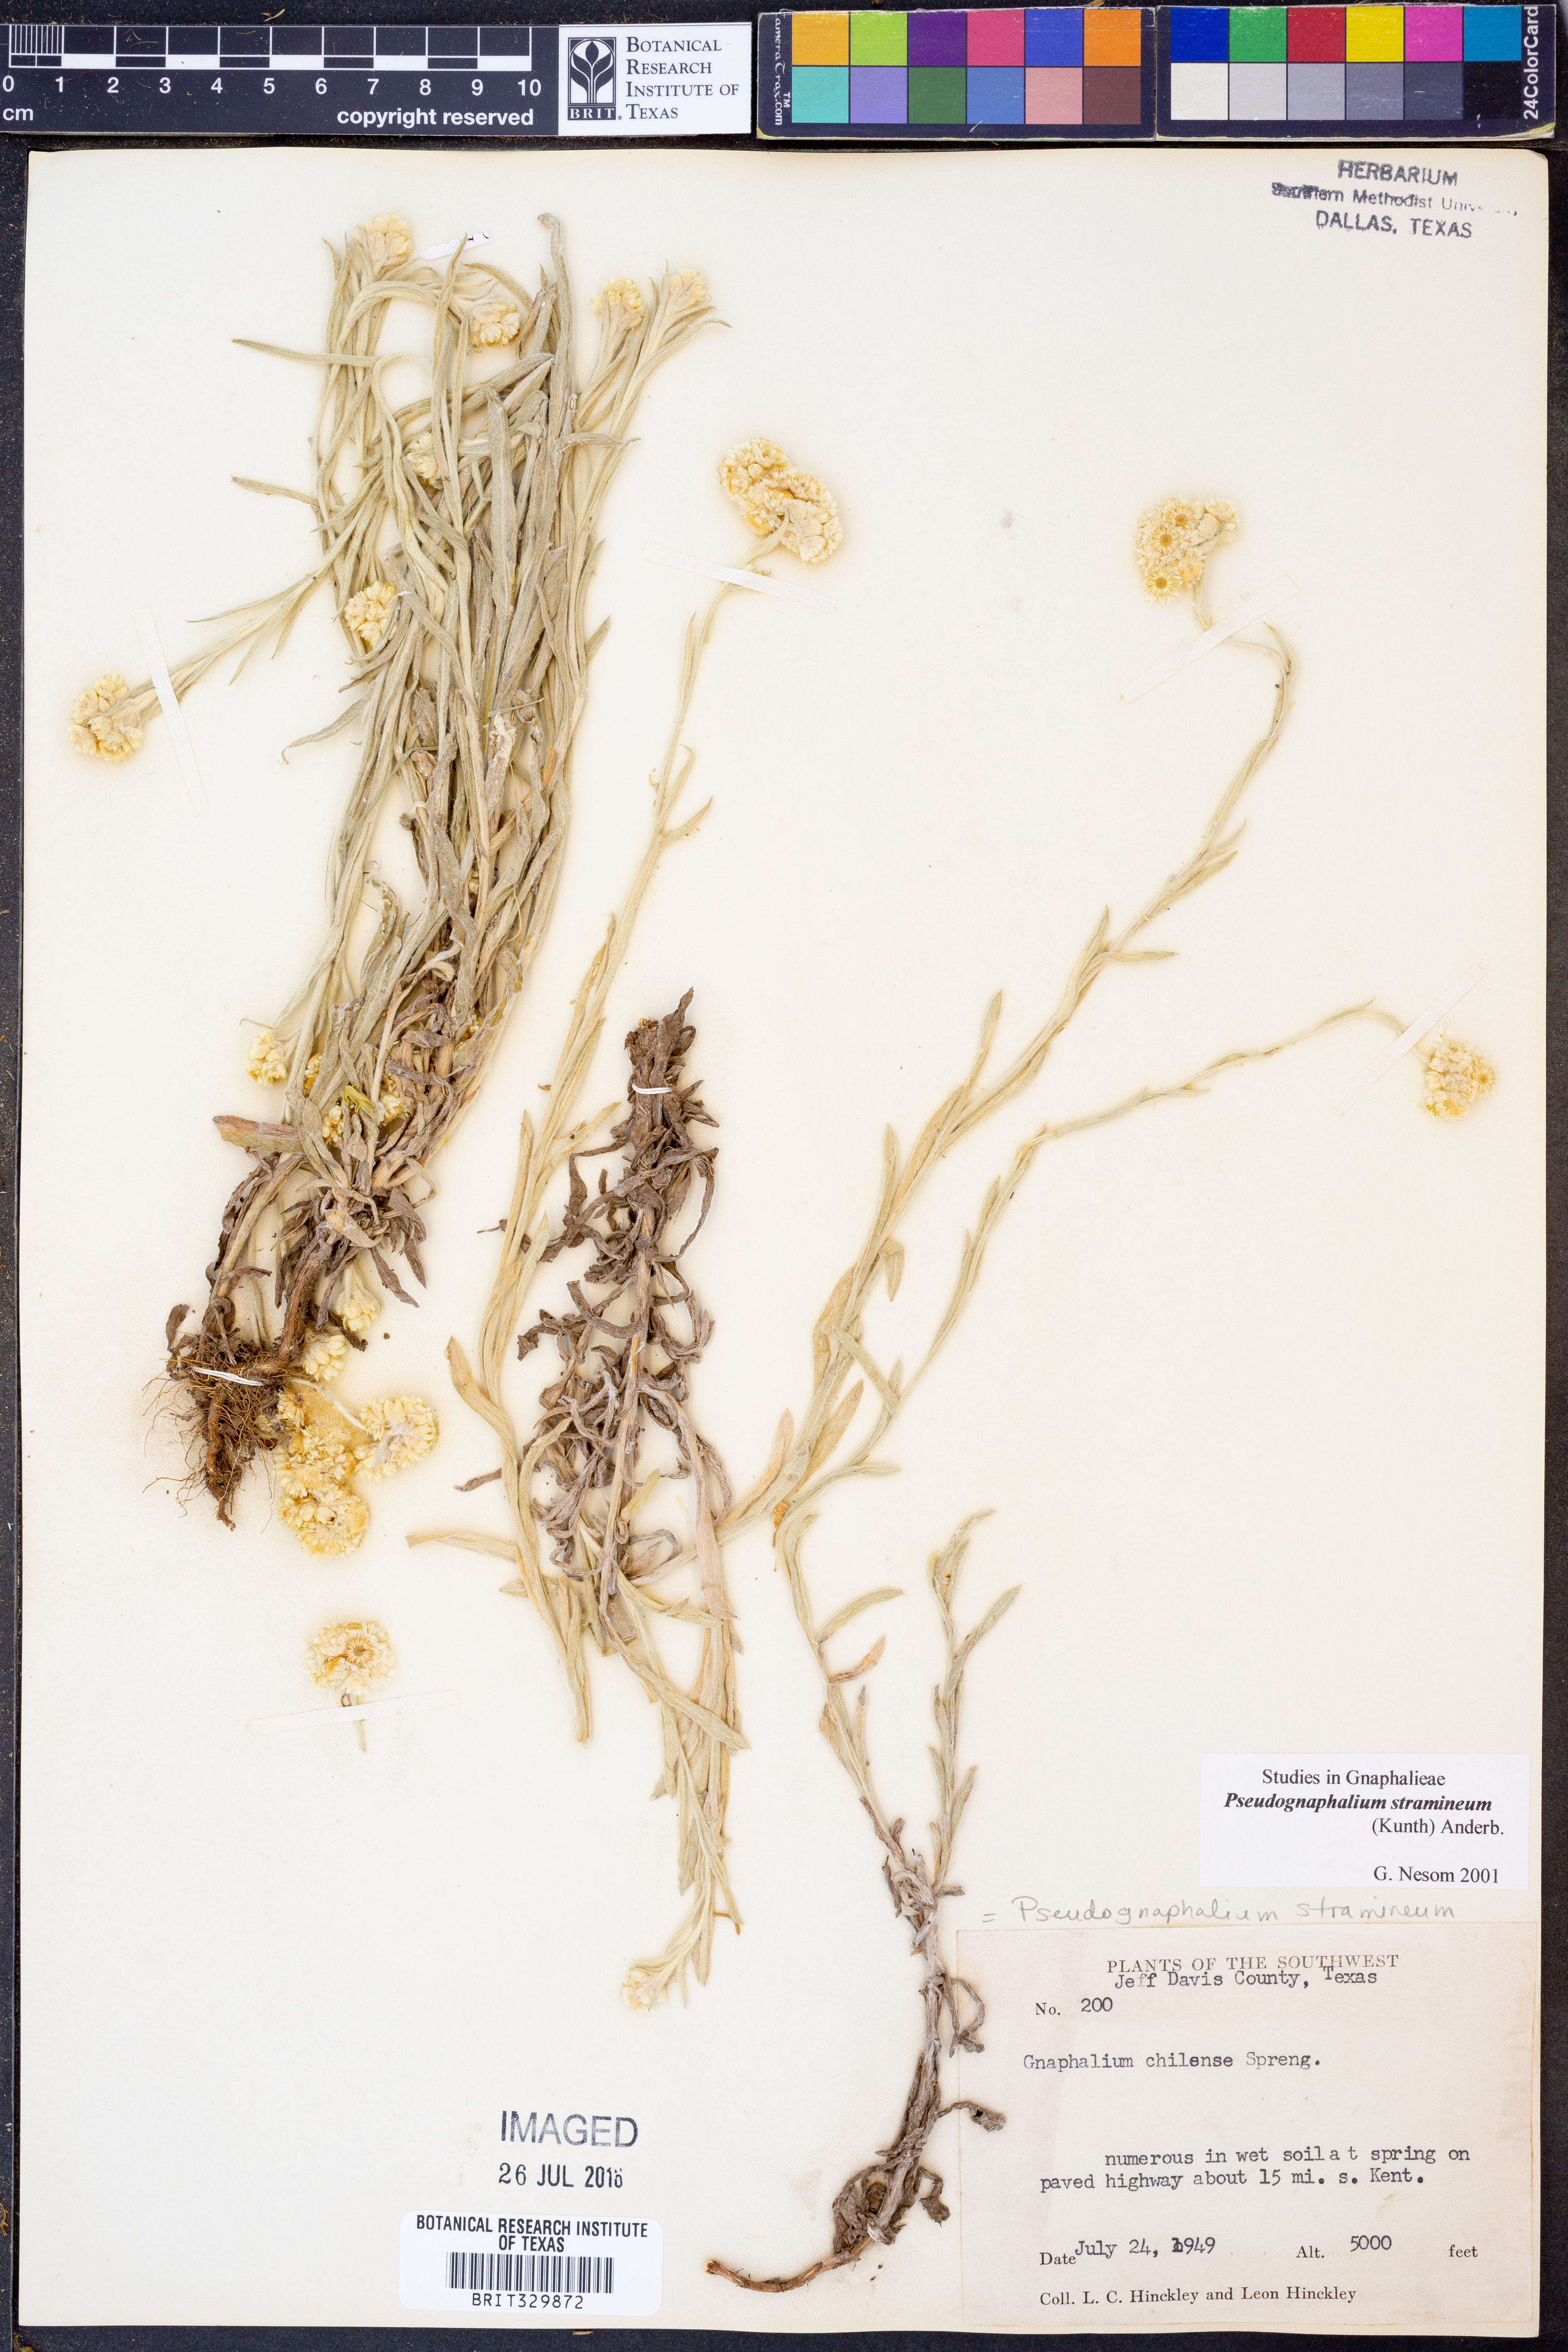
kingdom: Plantae
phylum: Tracheophyta
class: Magnoliopsida
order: Asterales
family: Asteraceae
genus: Pseudognaphalium
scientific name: Pseudognaphalium stramineum
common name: Cotton-batting-plant
